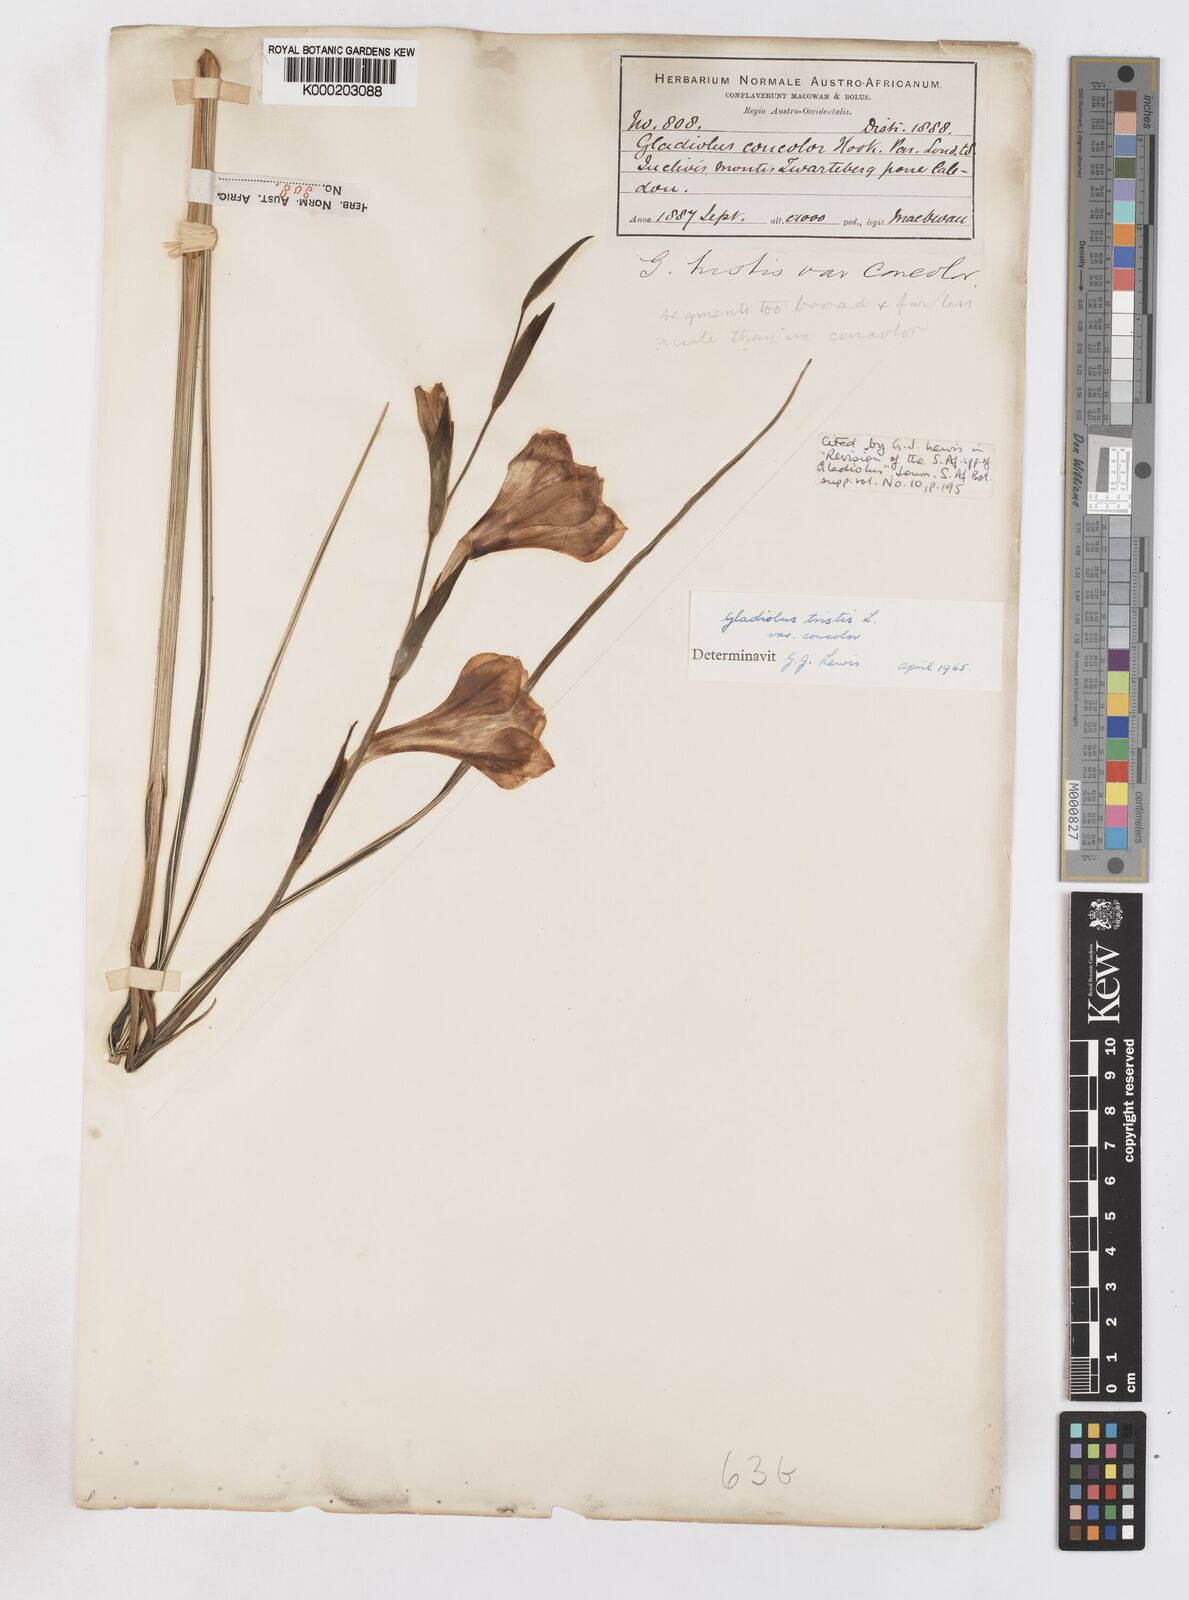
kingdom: Plantae
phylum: Tracheophyta
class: Liliopsida
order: Asparagales
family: Iridaceae
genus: Gladiolus
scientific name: Gladiolus tristis
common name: Ever-flowering gladiolus
